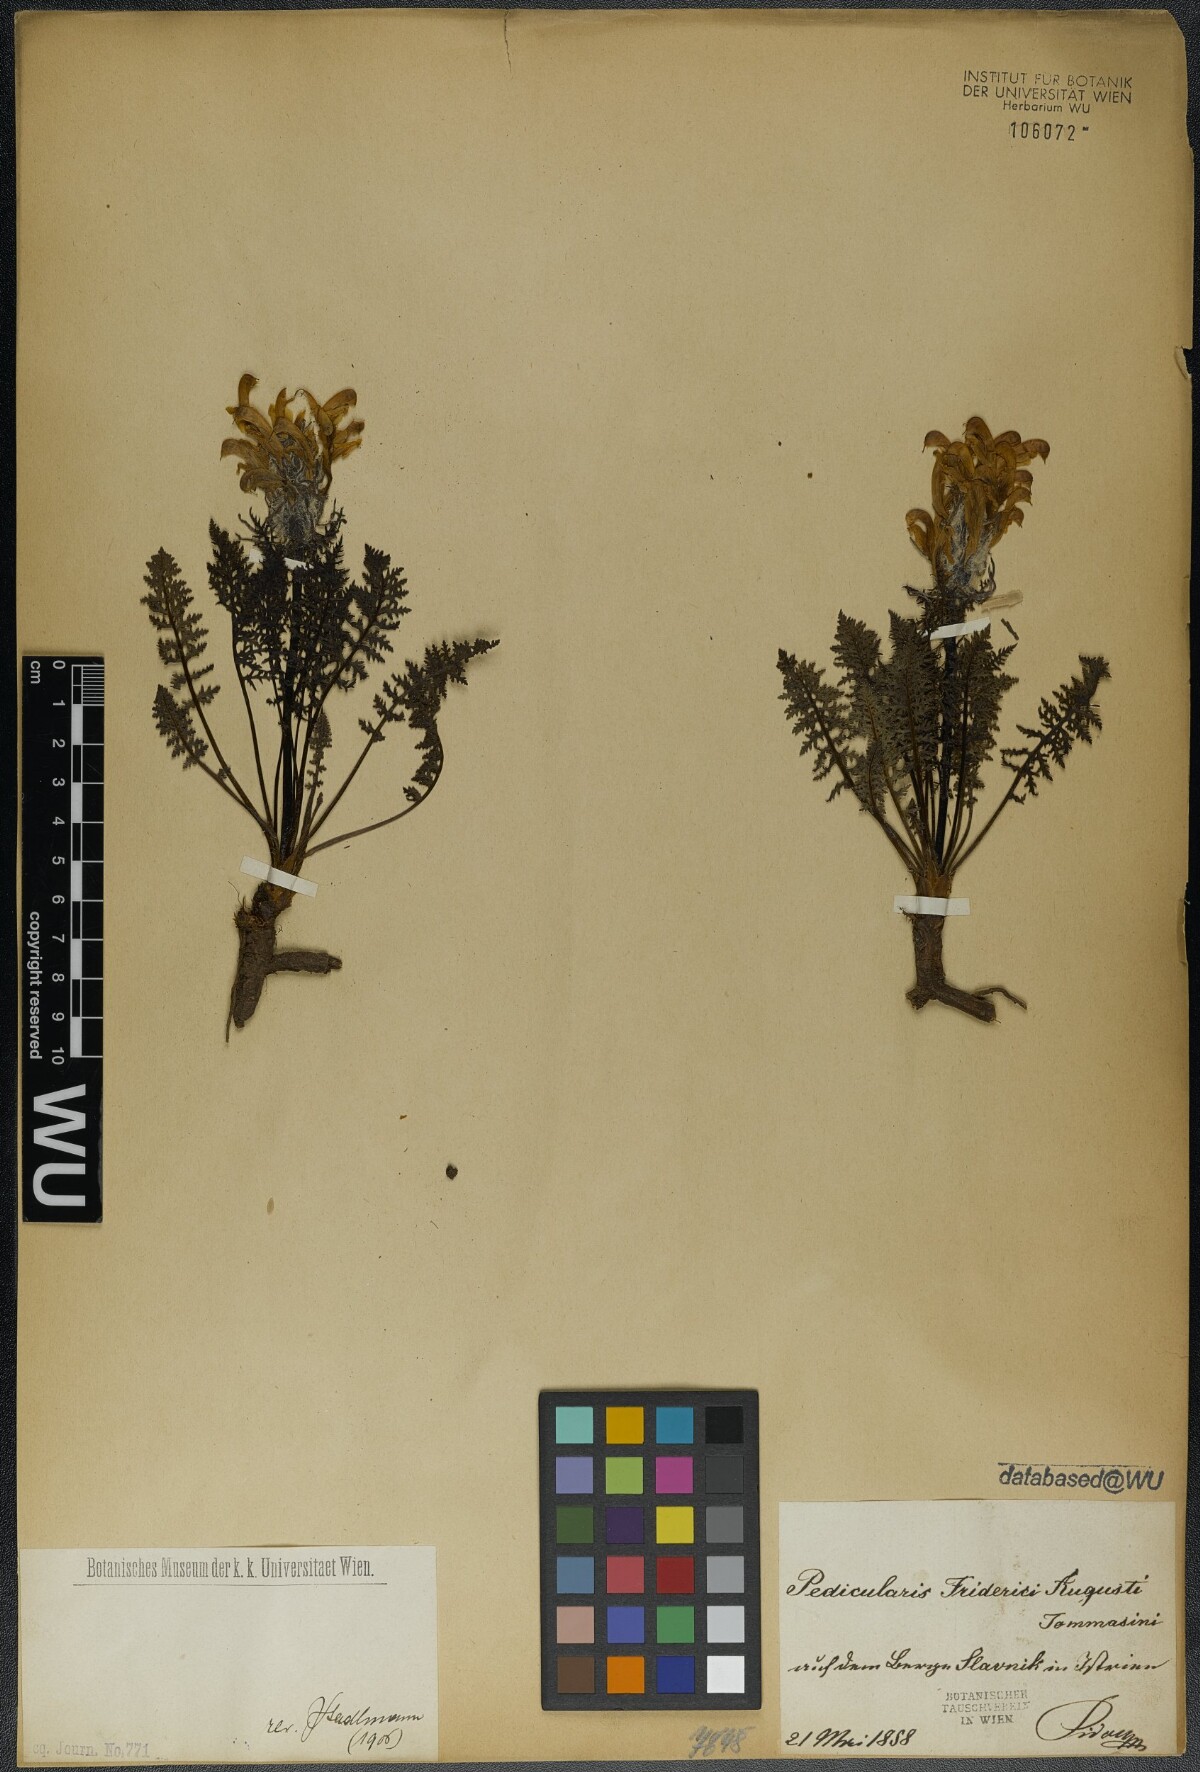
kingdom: Plantae
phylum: Tracheophyta
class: Magnoliopsida
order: Lamiales
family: Orobanchaceae
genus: Pedicularis
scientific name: Pedicularis friderici-augusti
